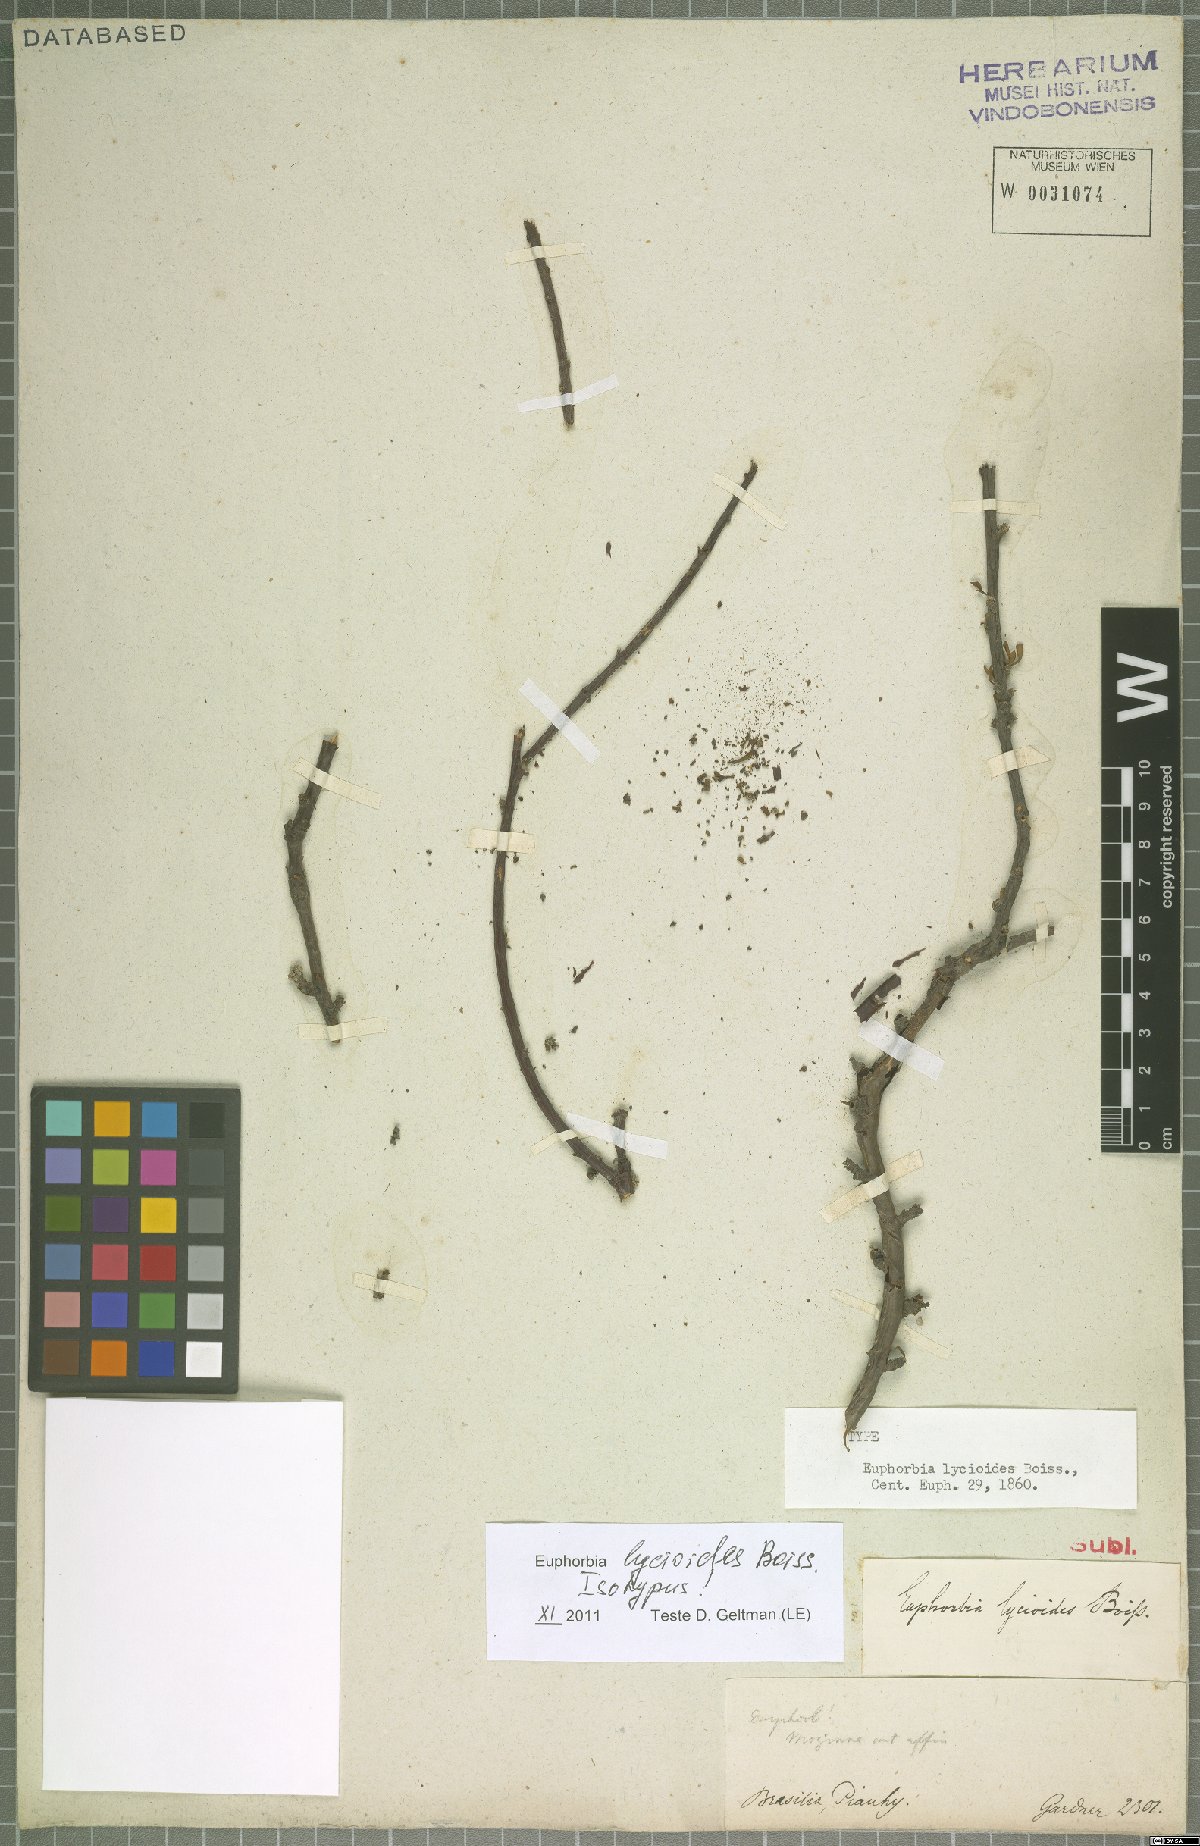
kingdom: Plantae
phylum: Tracheophyta
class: Magnoliopsida
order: Malpighiales
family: Euphorbiaceae
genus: Euphorbia
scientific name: Euphorbia lycioides
